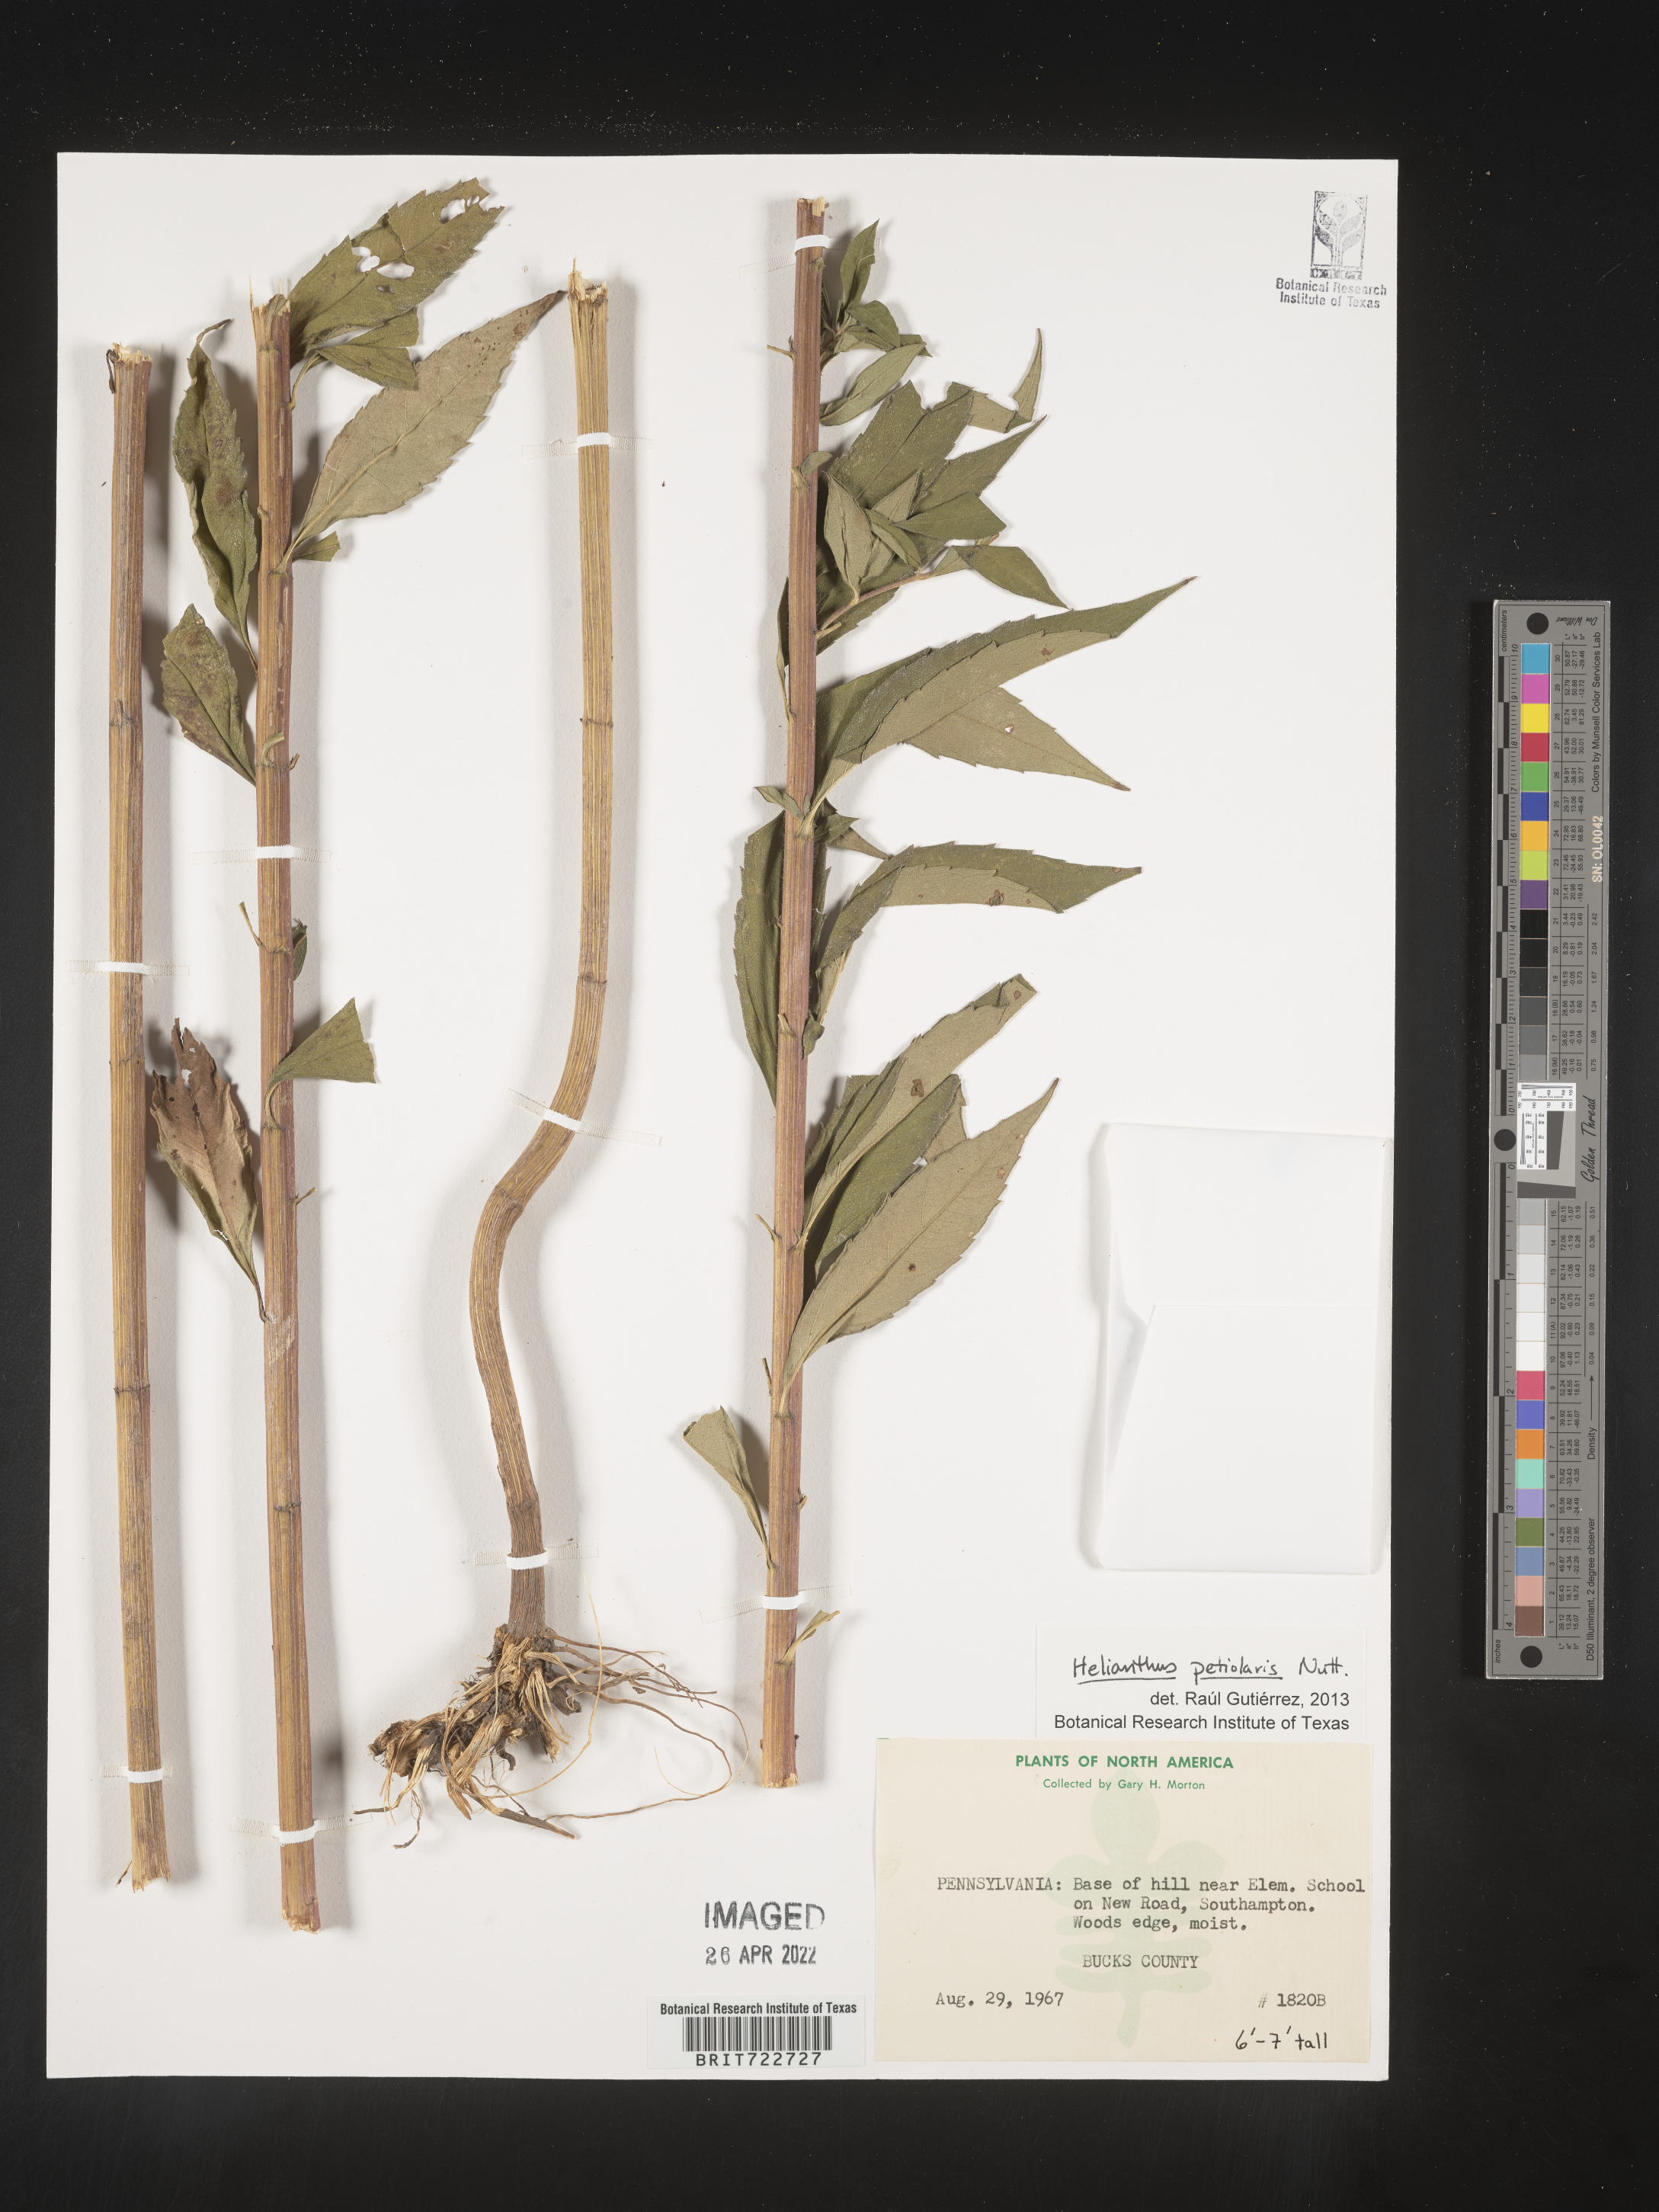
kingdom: Plantae
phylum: Tracheophyta
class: Magnoliopsida
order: Asterales
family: Asteraceae
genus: Helianthus
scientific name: Helianthus petiolaris
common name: Lesser sunflower
